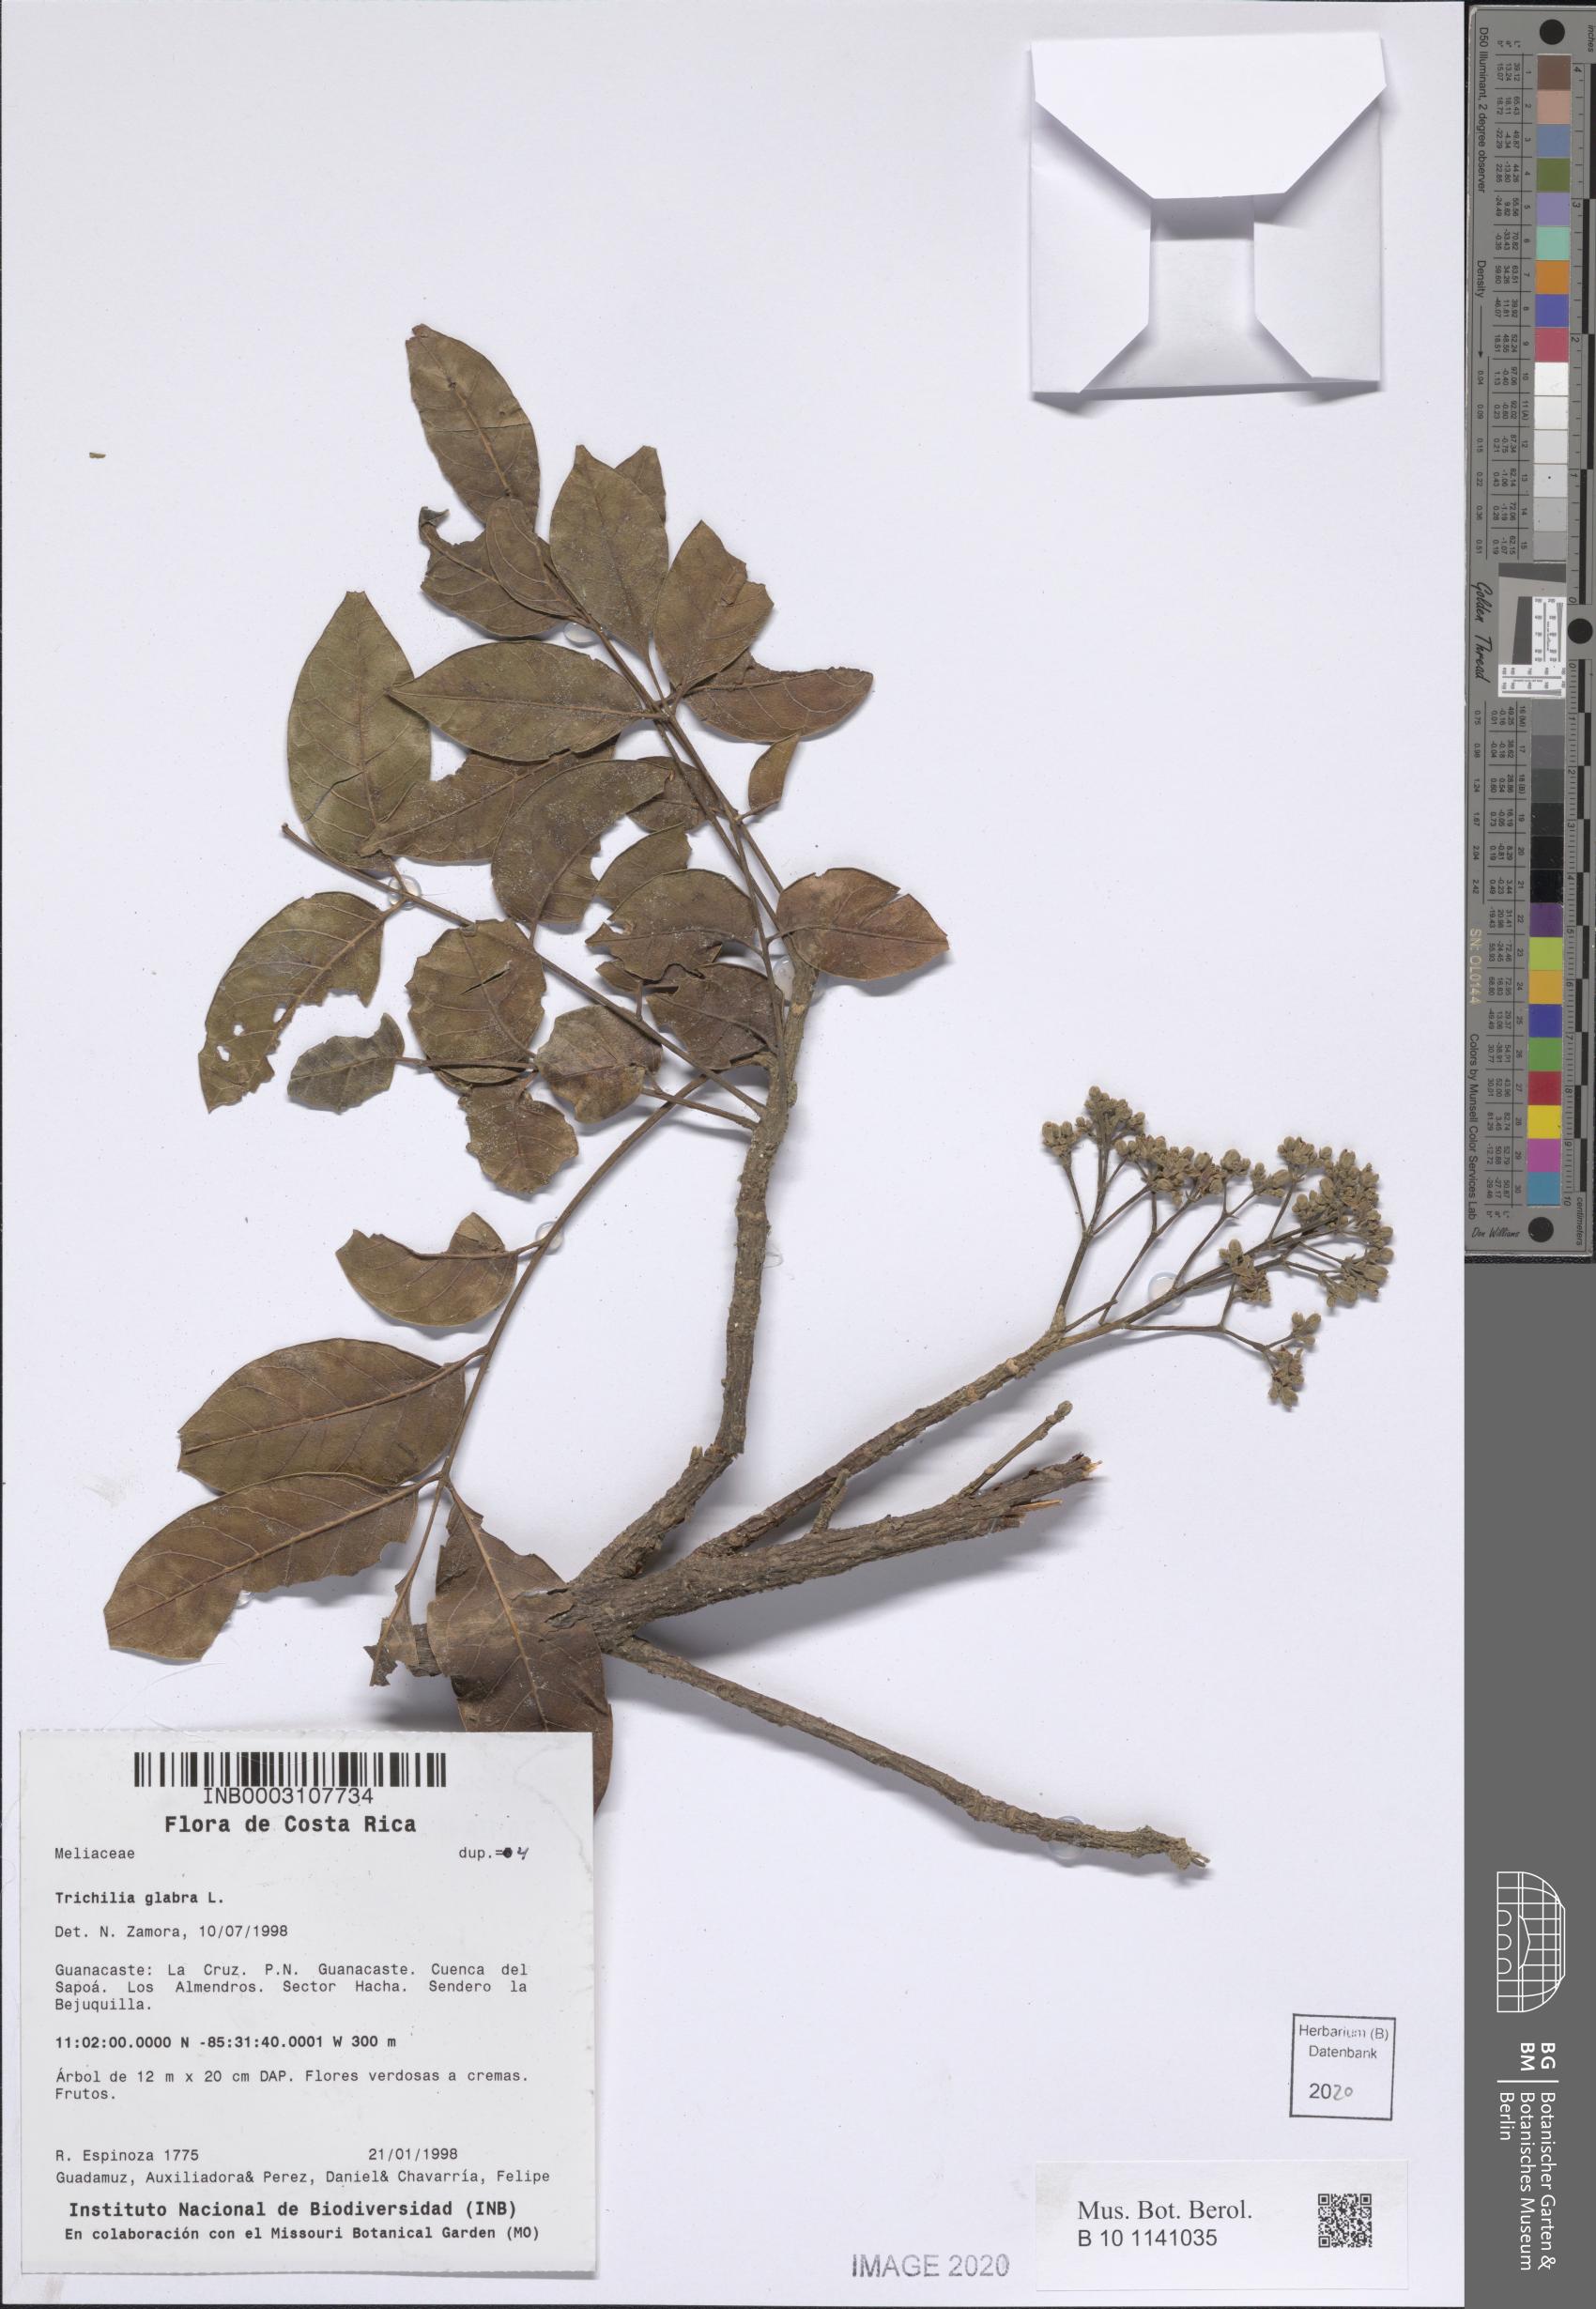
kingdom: Plantae
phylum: Tracheophyta
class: Magnoliopsida
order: Sapindales
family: Meliaceae
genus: Trichilia
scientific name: Trichilia glabra
